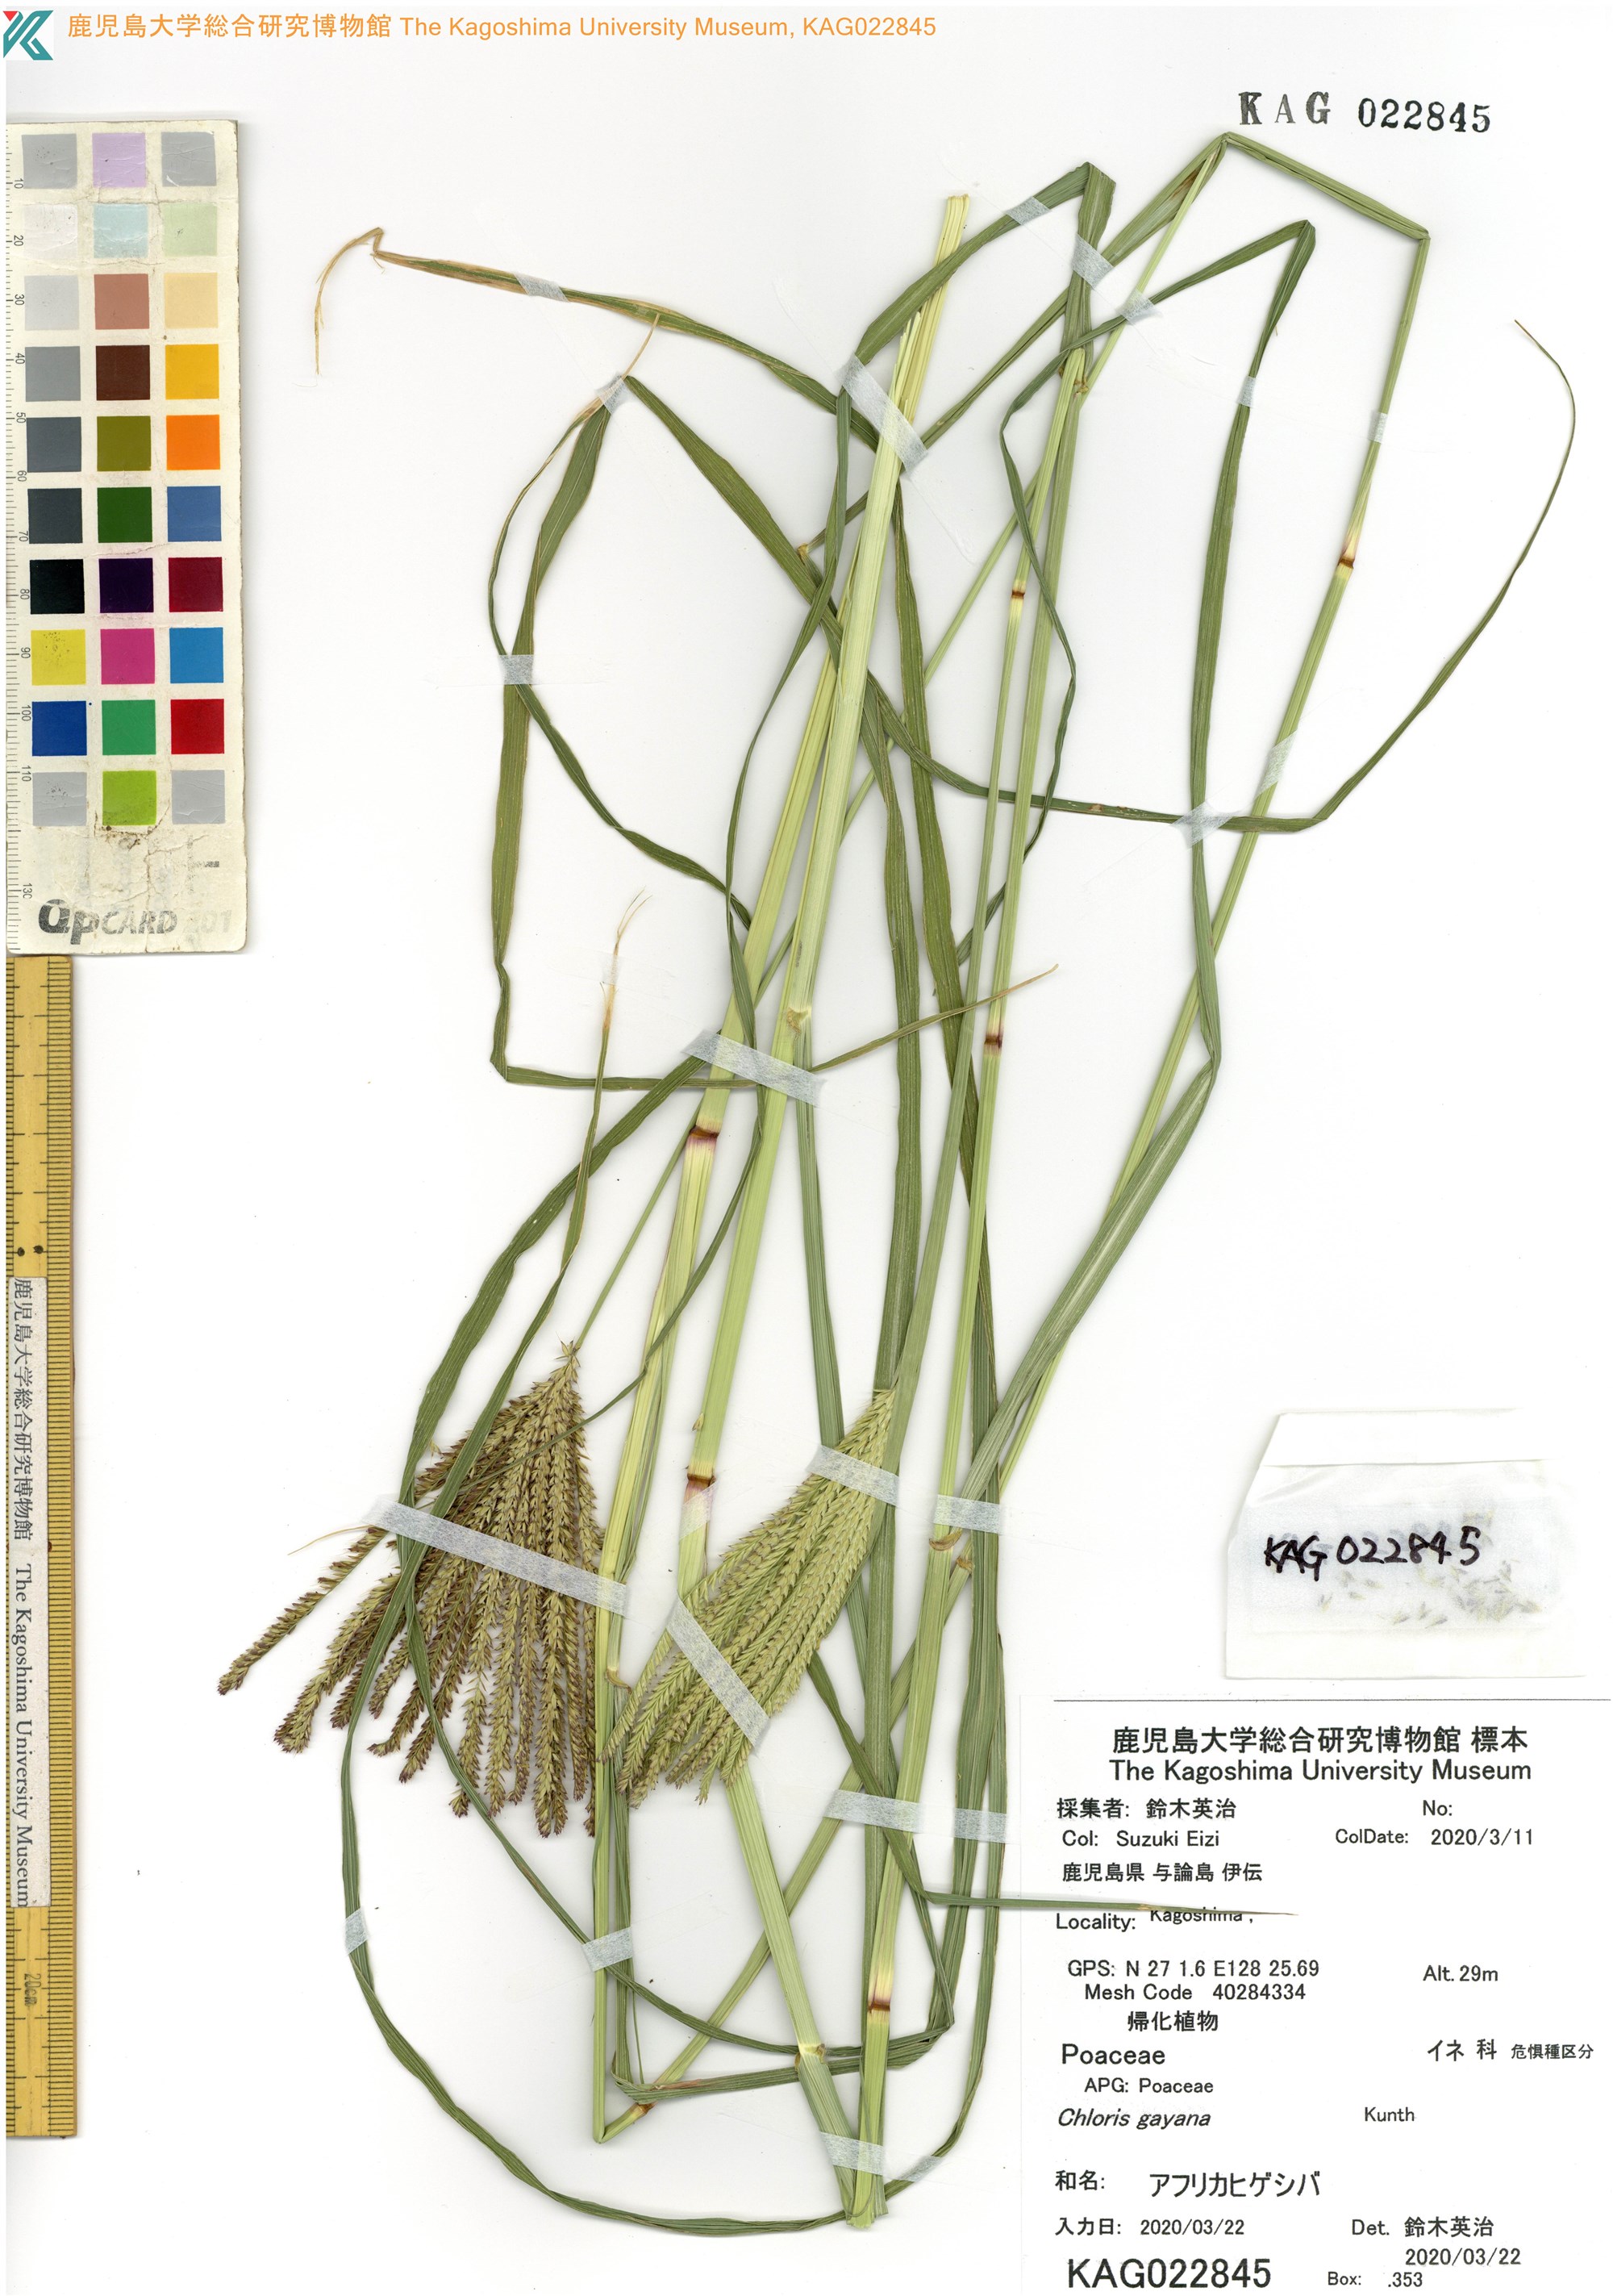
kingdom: Plantae
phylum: Tracheophyta
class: Liliopsida
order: Poales
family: Poaceae
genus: Chloris
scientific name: Chloris gayana
